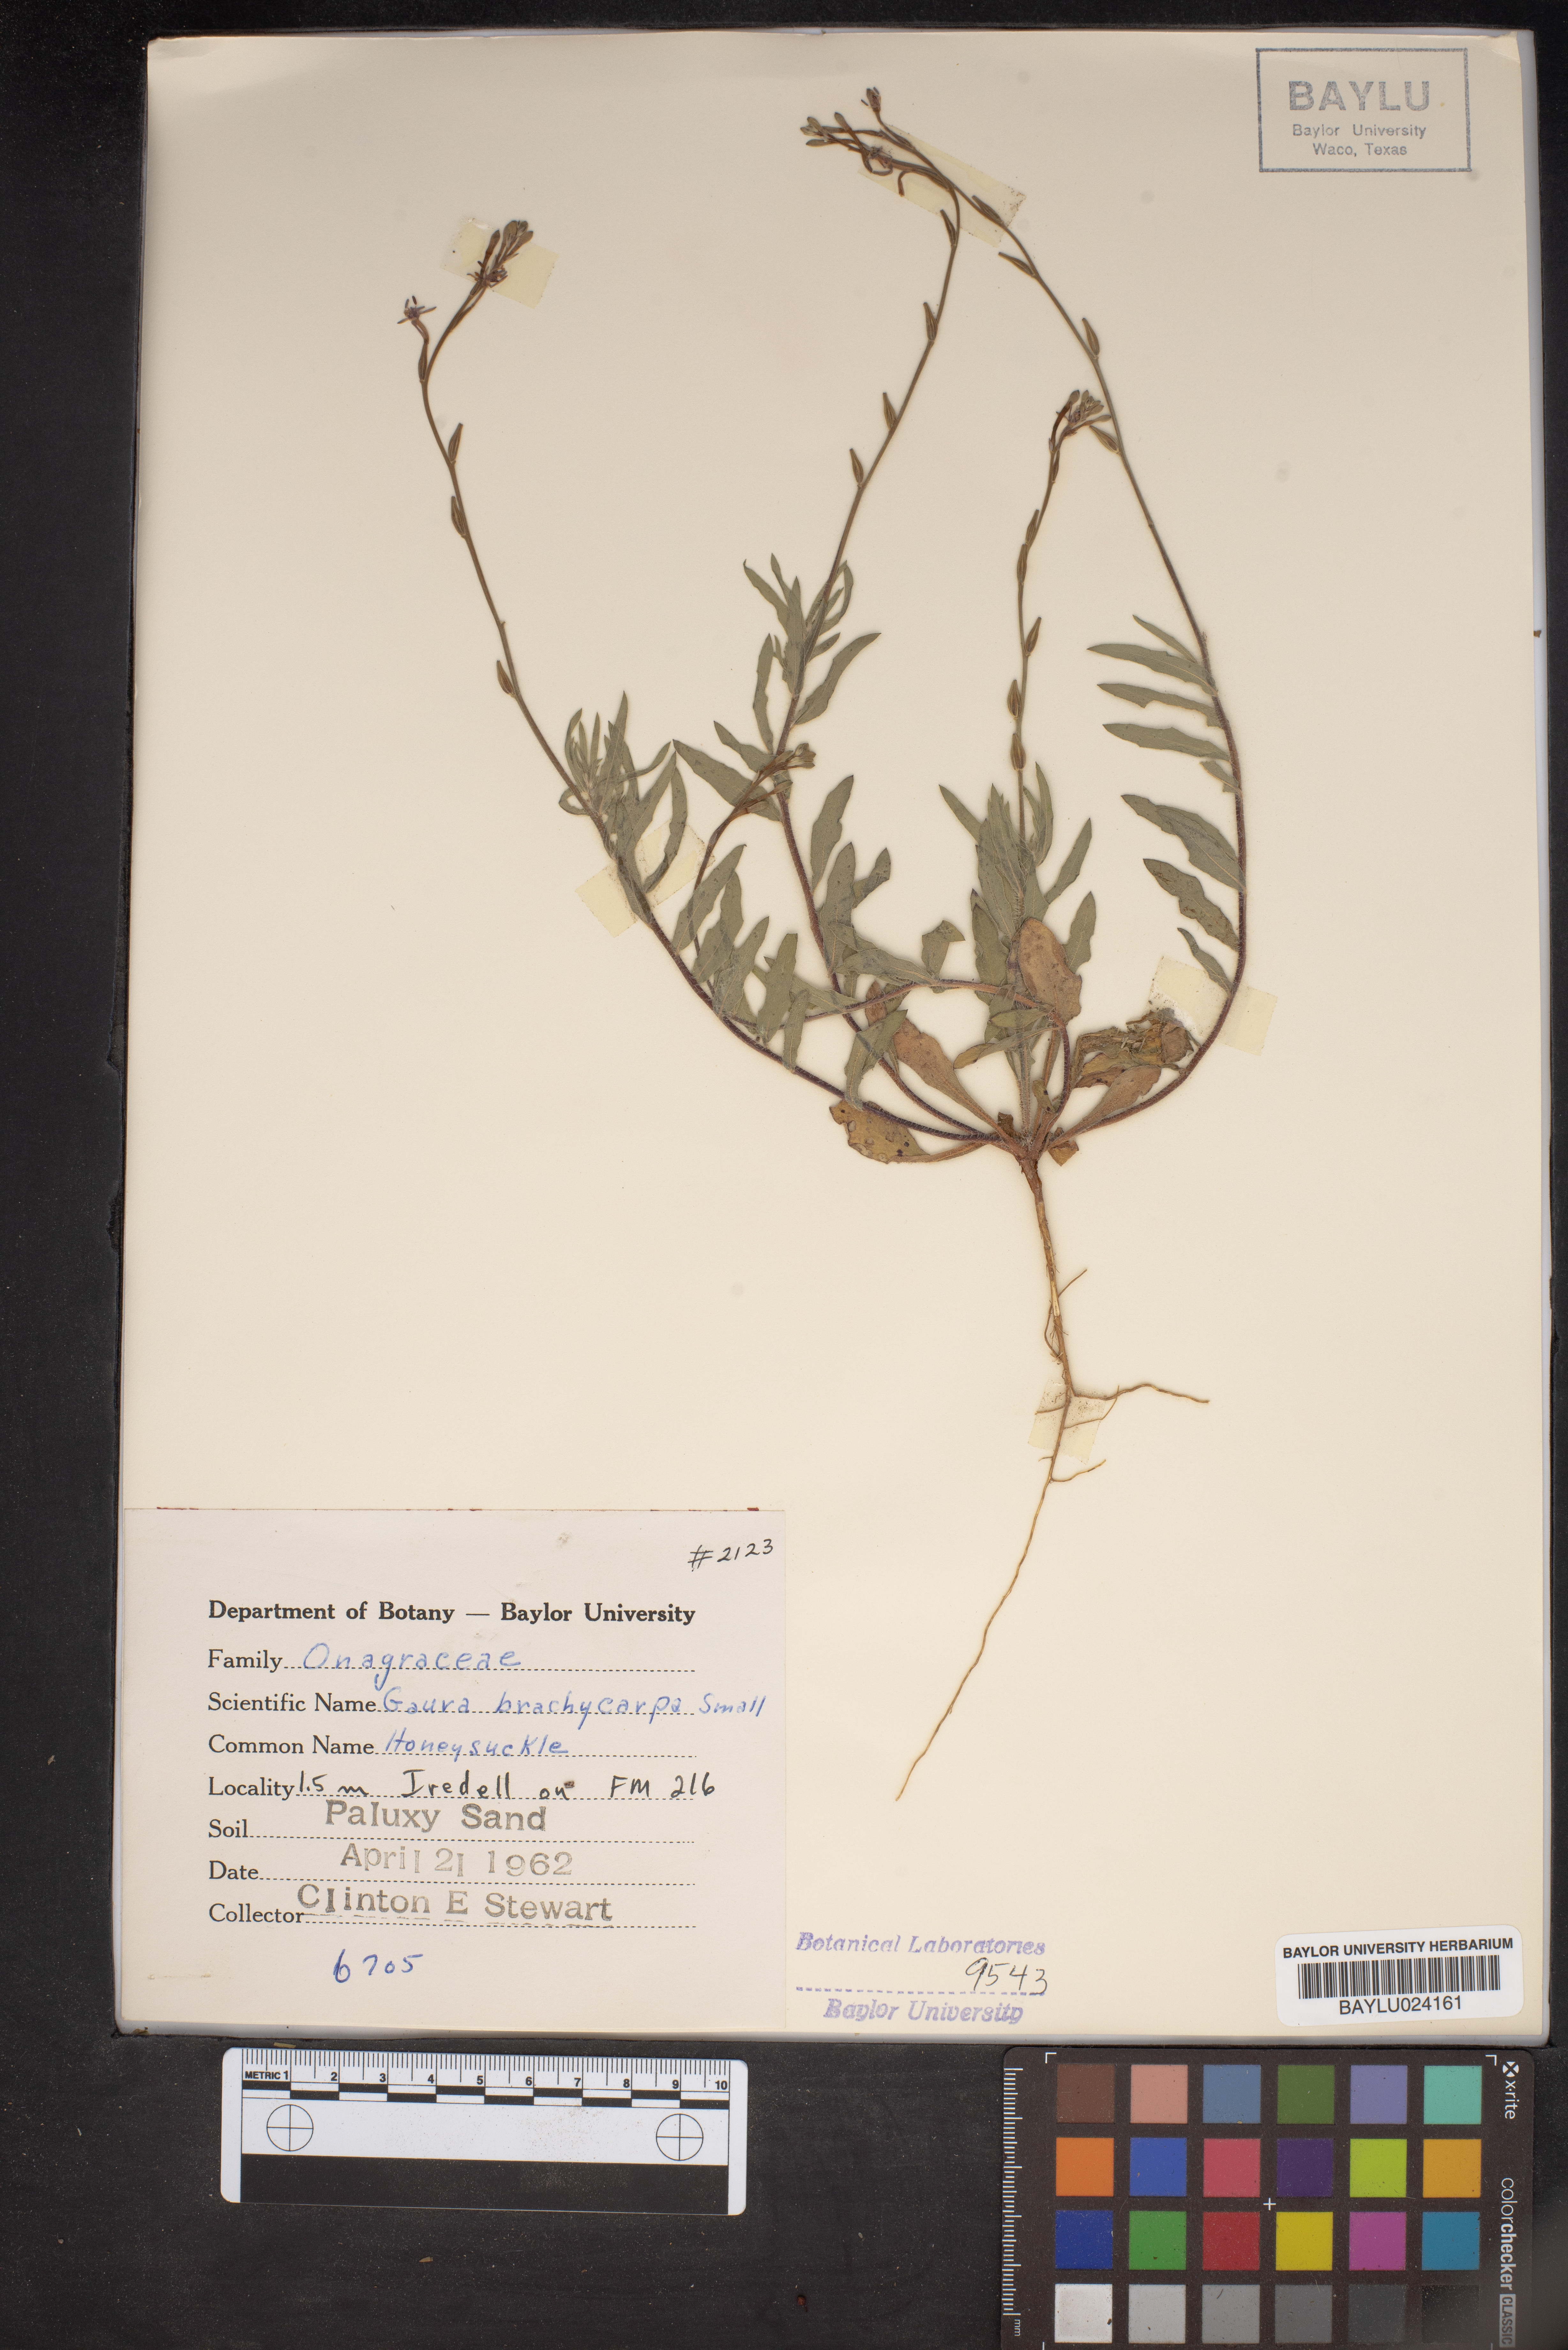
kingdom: Plantae
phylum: Tracheophyta
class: Magnoliopsida
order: Myrtales
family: Onagraceae
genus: Oenothera
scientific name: Oenothera patriciae
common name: Plains beeblossom
